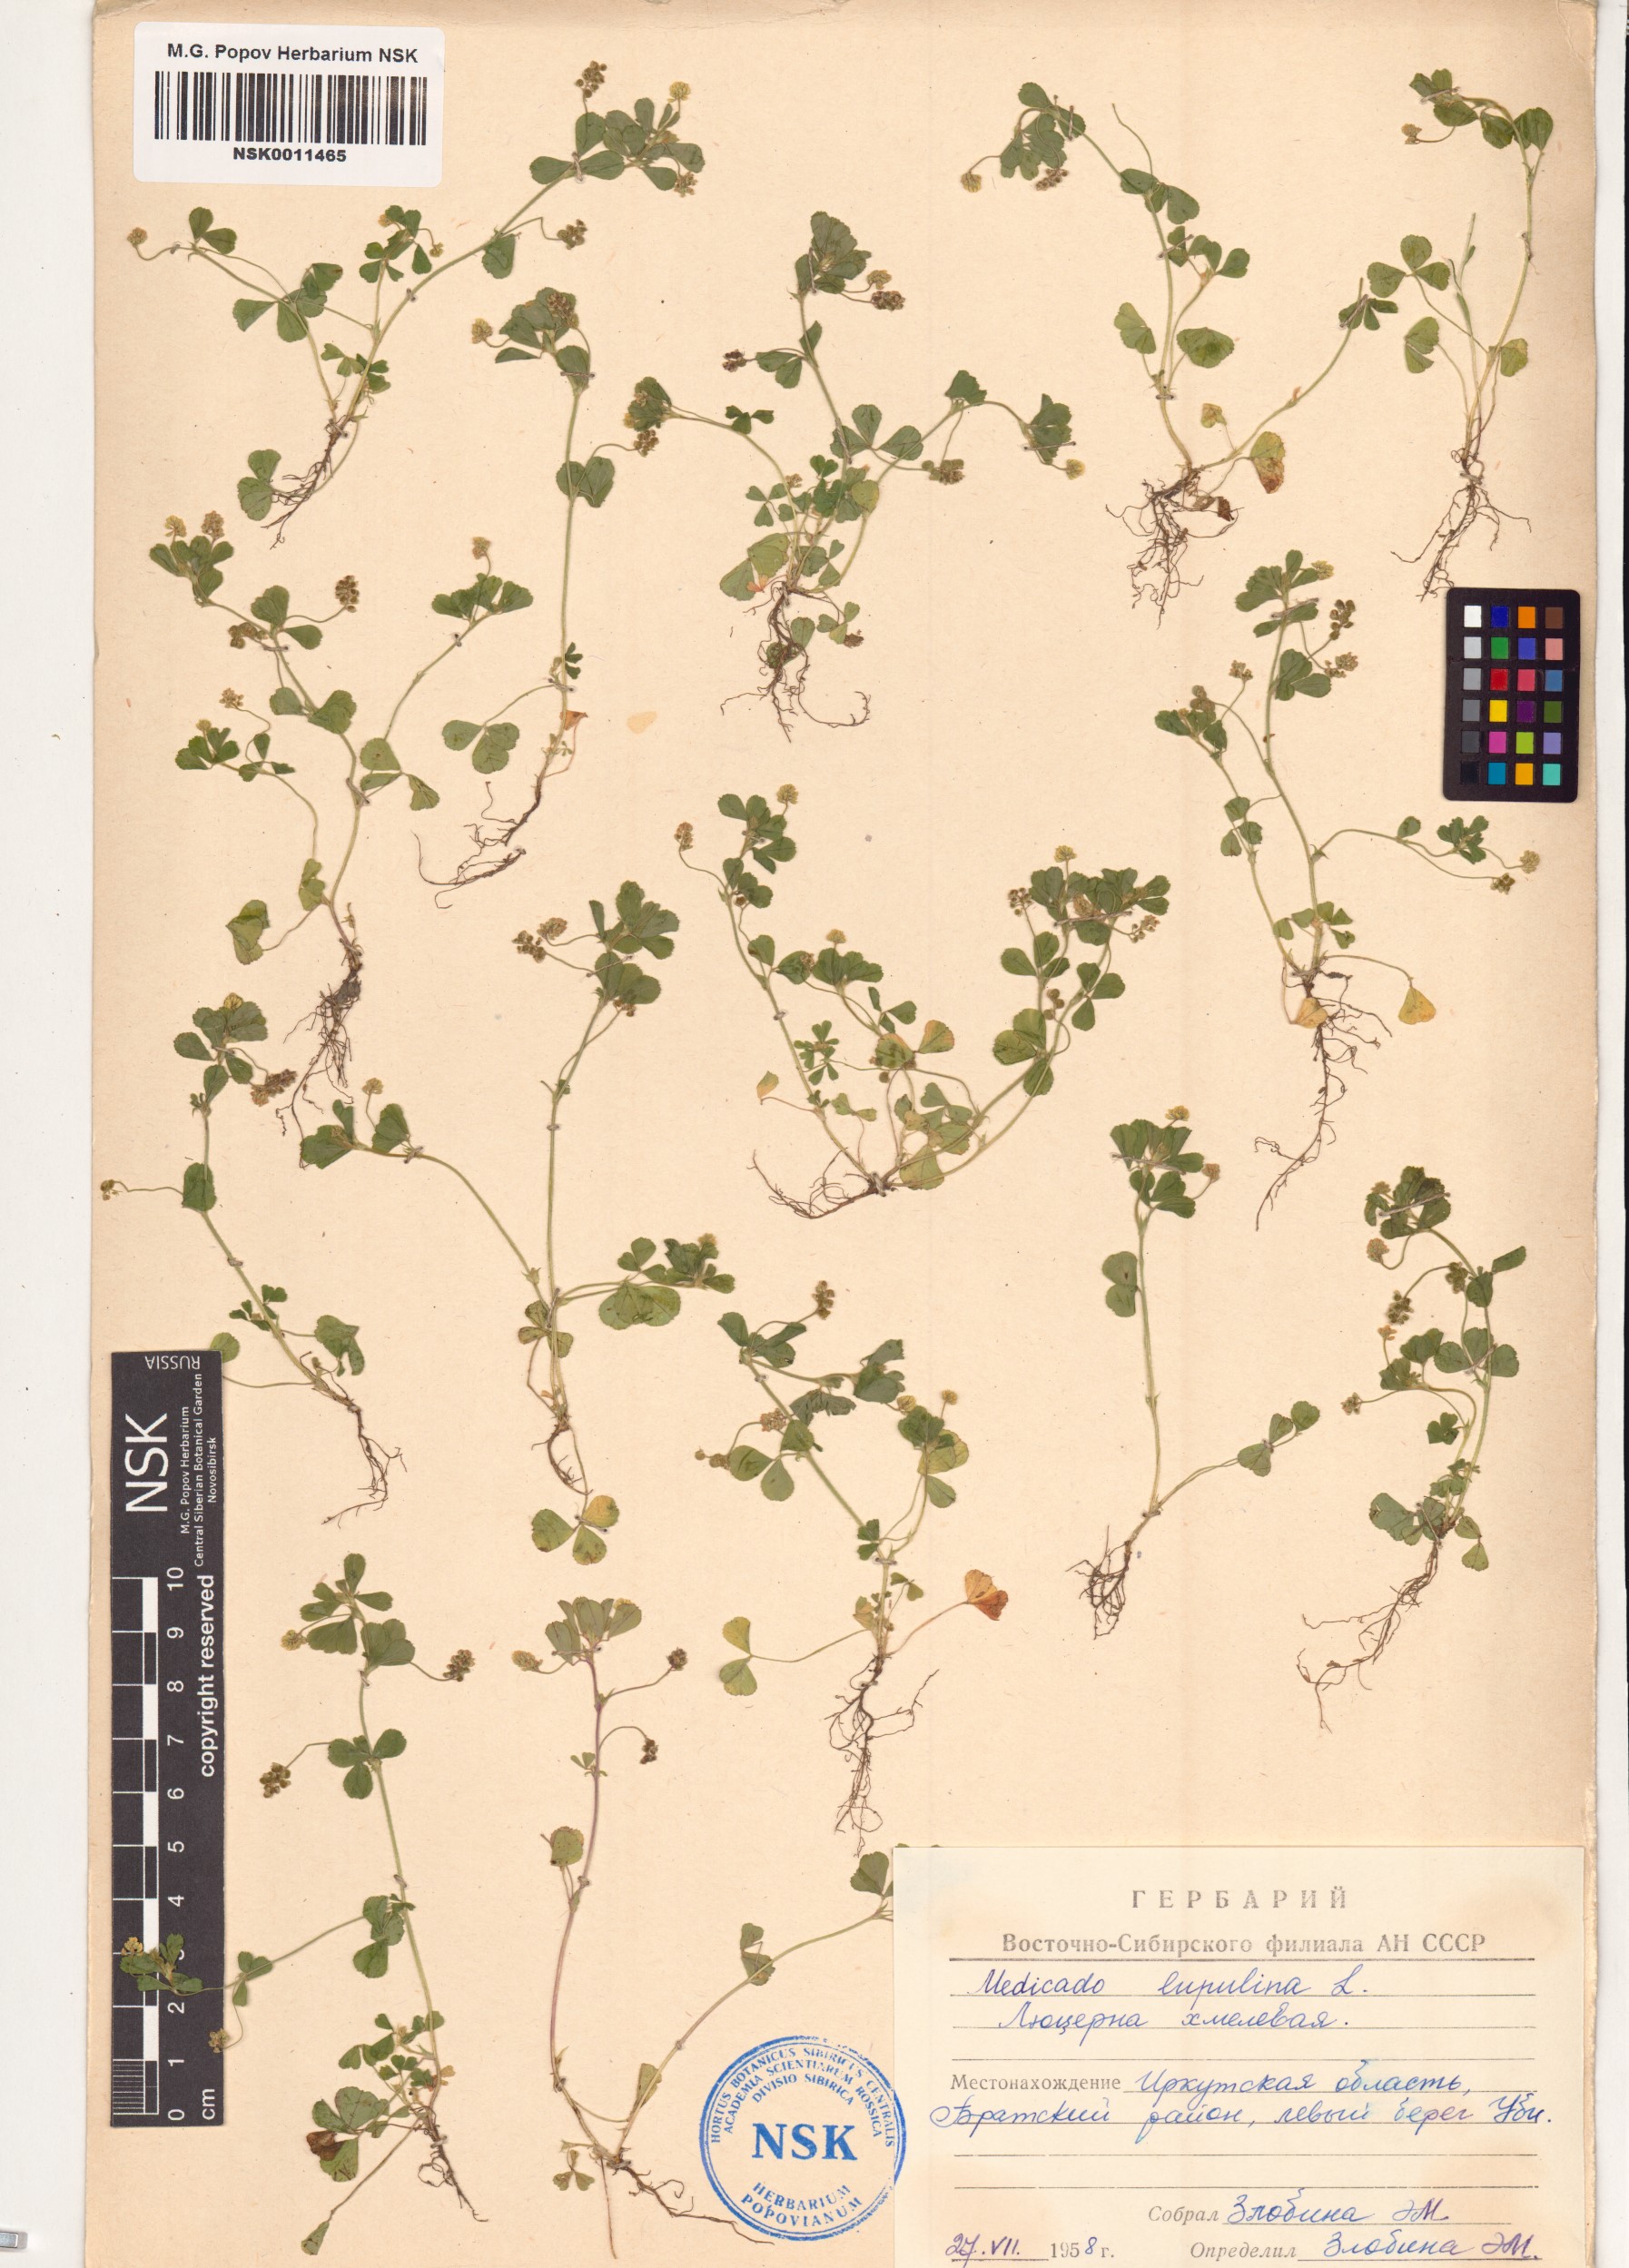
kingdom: Plantae
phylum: Tracheophyta
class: Magnoliopsida
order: Fabales
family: Fabaceae
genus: Medicago
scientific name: Medicago lupulina
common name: Black medick
